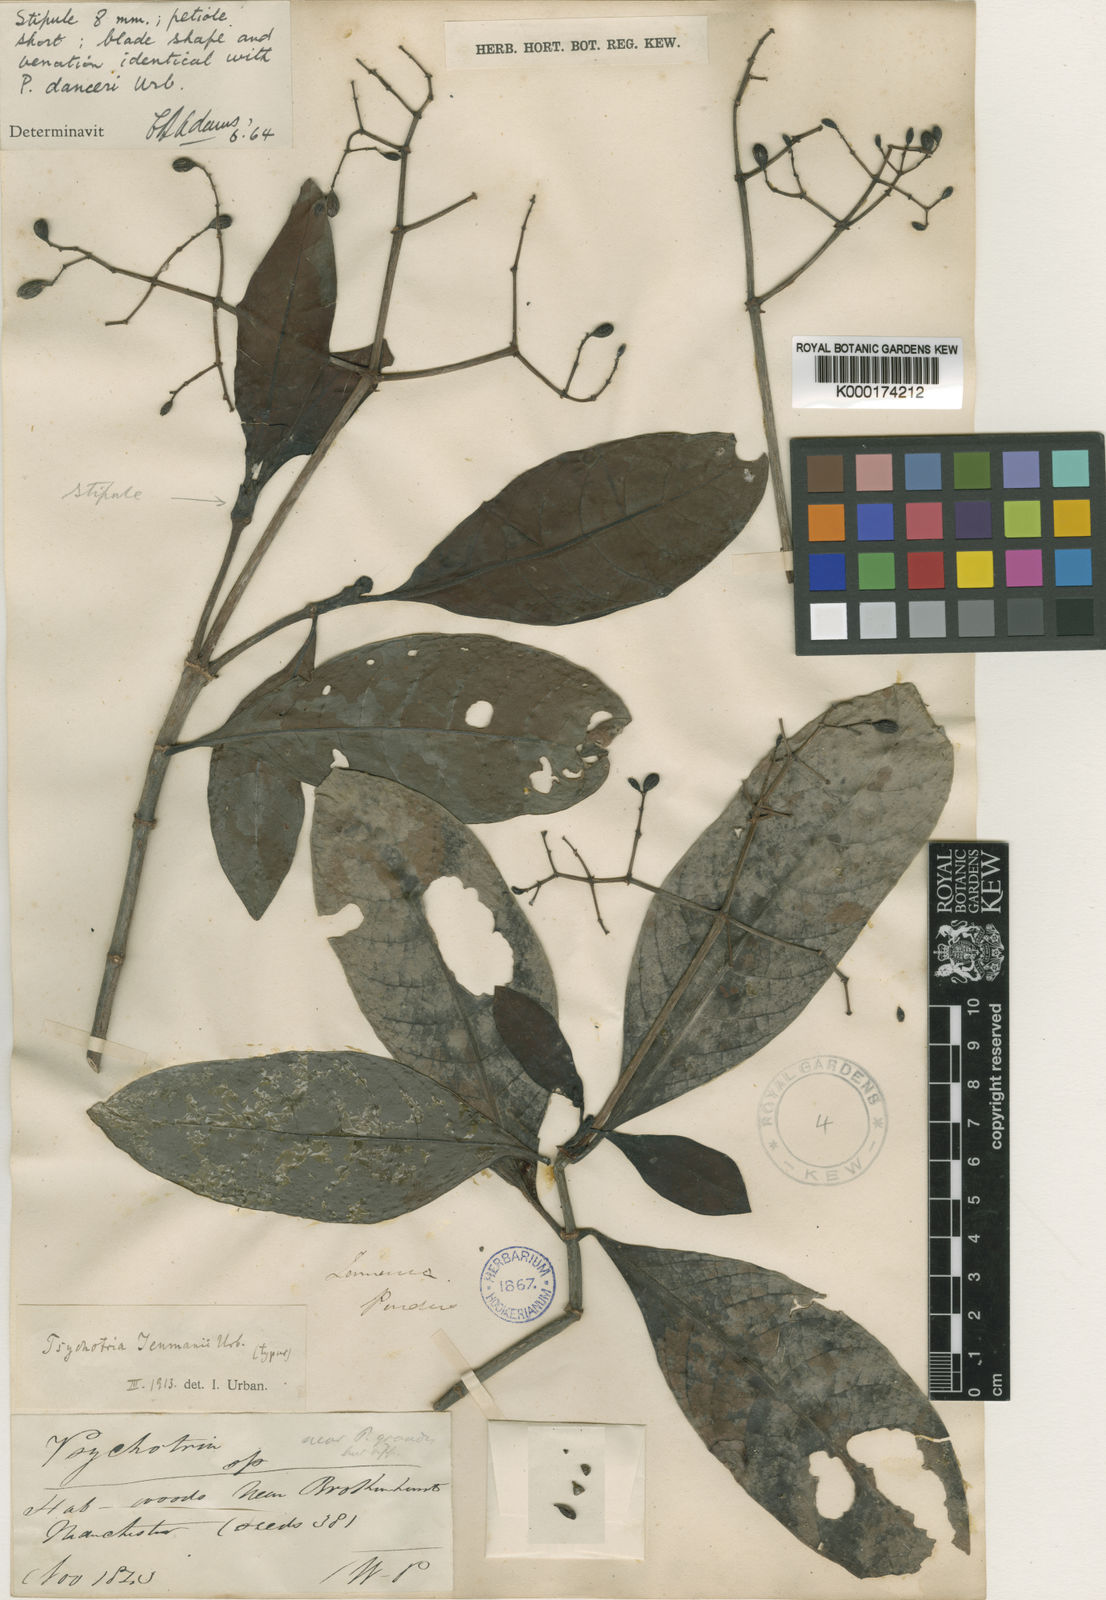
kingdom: Plantae
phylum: Tracheophyta
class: Magnoliopsida
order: Gentianales
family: Rubiaceae
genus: Psychotria
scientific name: Psychotria dura
